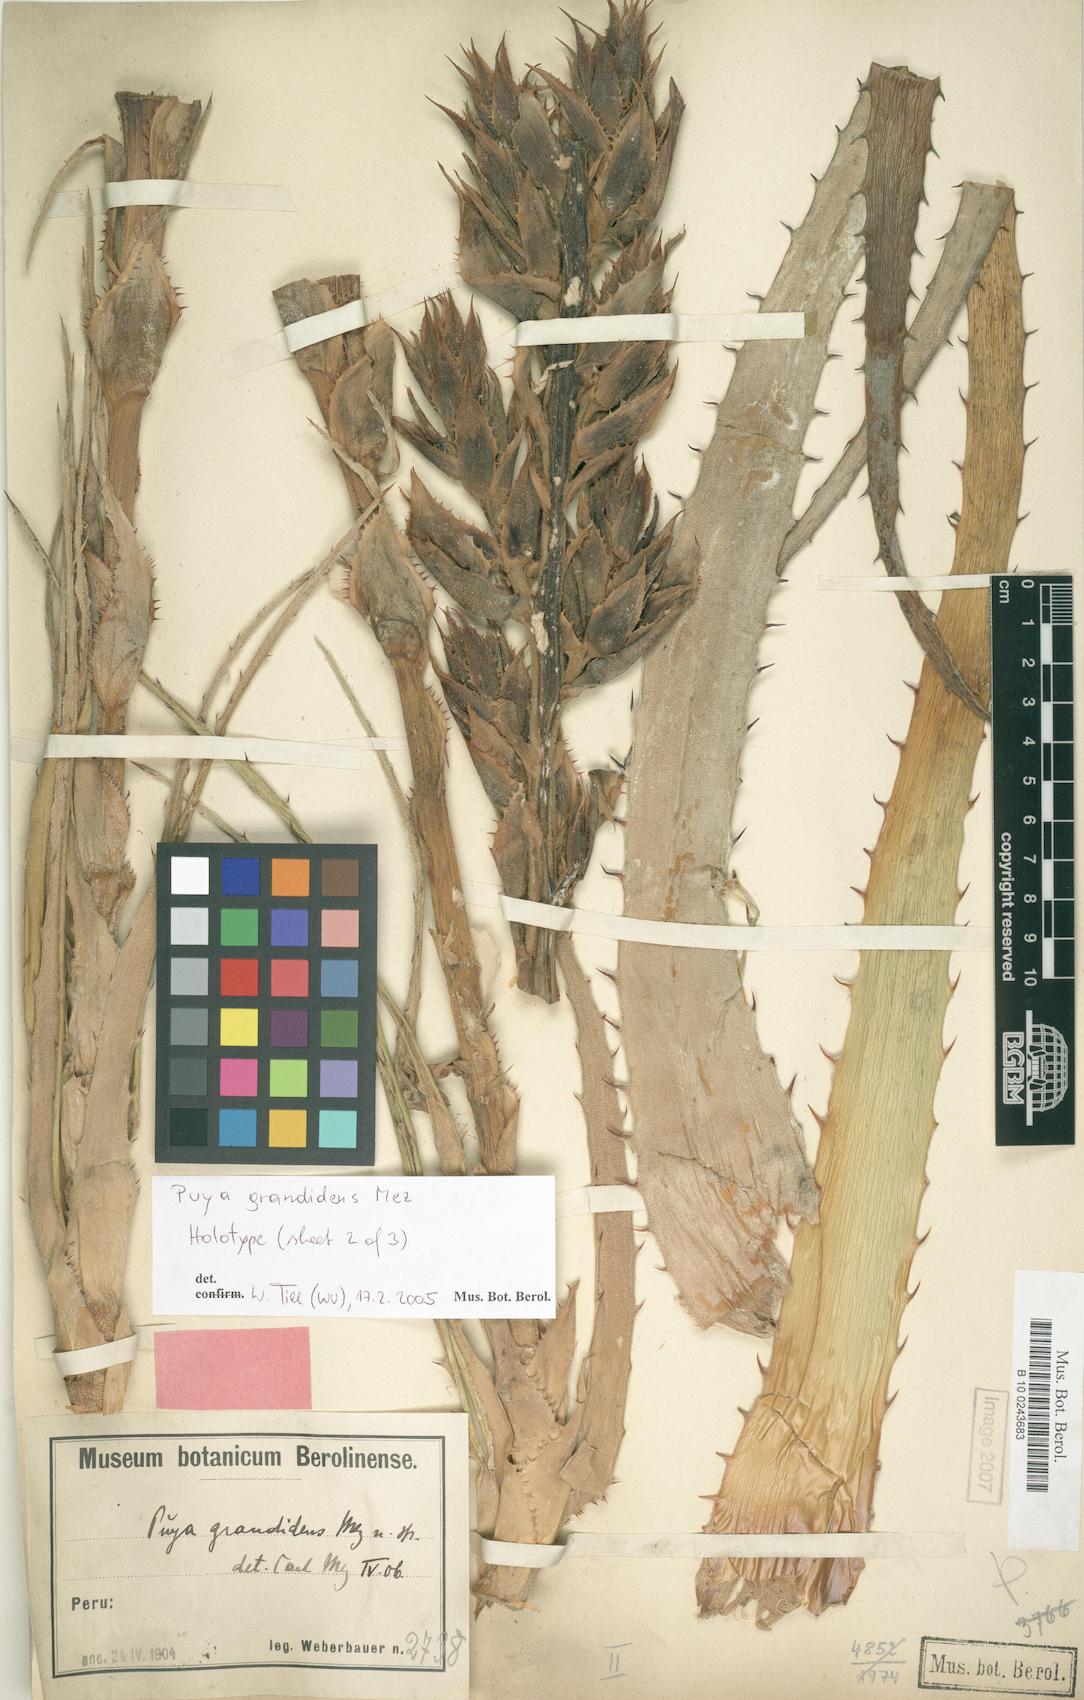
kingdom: Plantae
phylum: Tracheophyta
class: Liliopsida
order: Poales
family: Bromeliaceae
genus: Puya
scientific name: Puya grandidens
